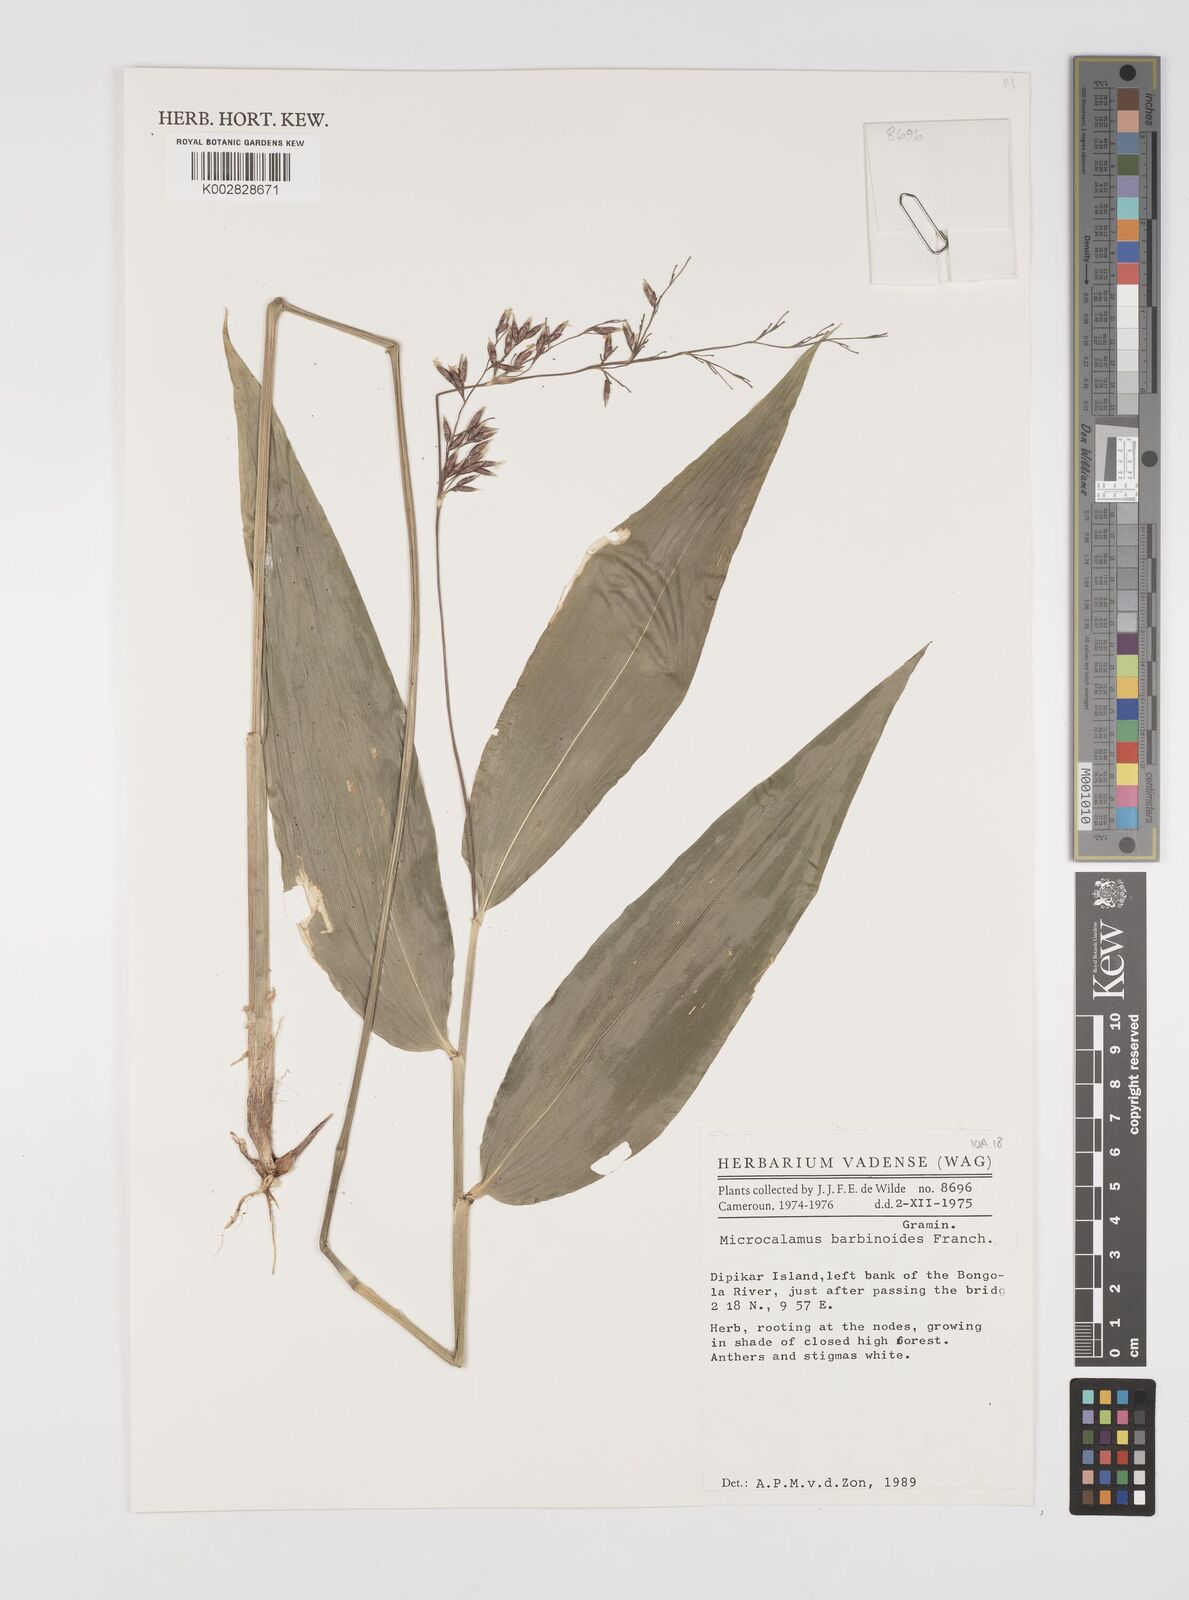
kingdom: Plantae
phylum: Tracheophyta
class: Liliopsida
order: Poales
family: Poaceae
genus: Microcalamus
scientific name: Microcalamus barbinodis
